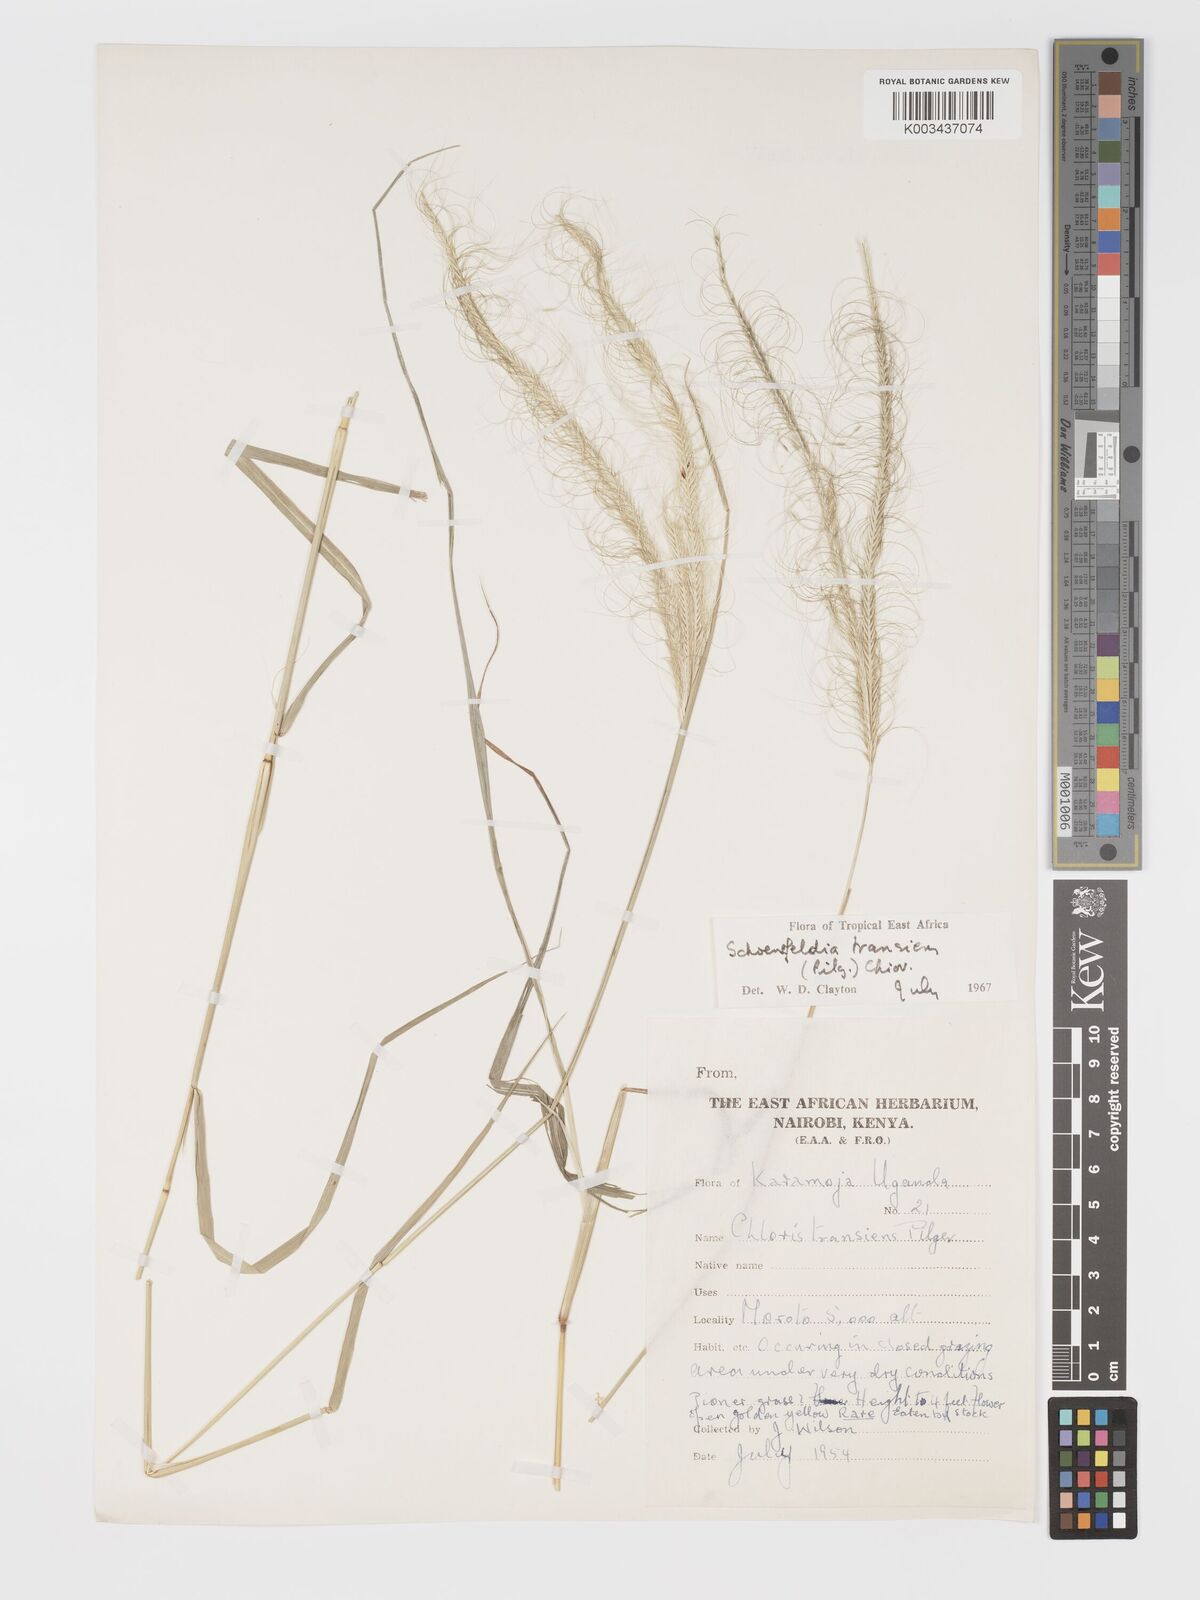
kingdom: Plantae
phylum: Tracheophyta
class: Liliopsida
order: Poales
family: Poaceae
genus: Schoenefeldia
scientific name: Schoenefeldia transiens
